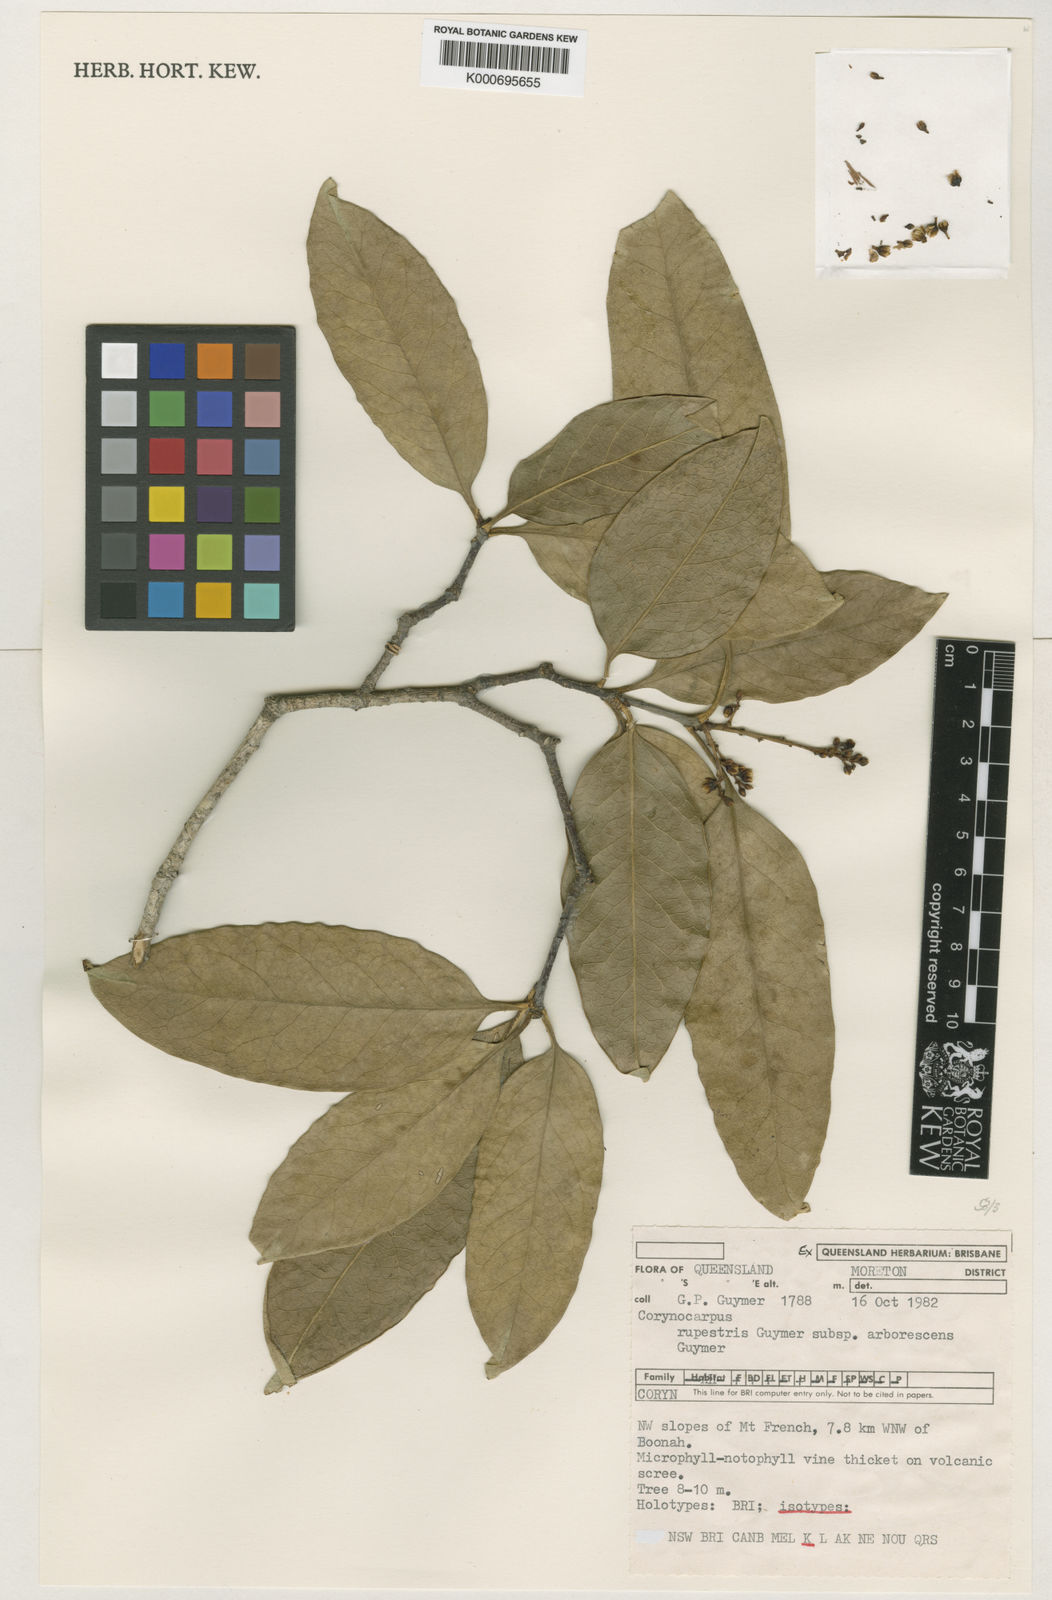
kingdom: Plantae
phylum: Tracheophyta
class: Magnoliopsida
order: Cucurbitales
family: Corynocarpaceae
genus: Corynocarpus
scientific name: Corynocarpus rupestris
